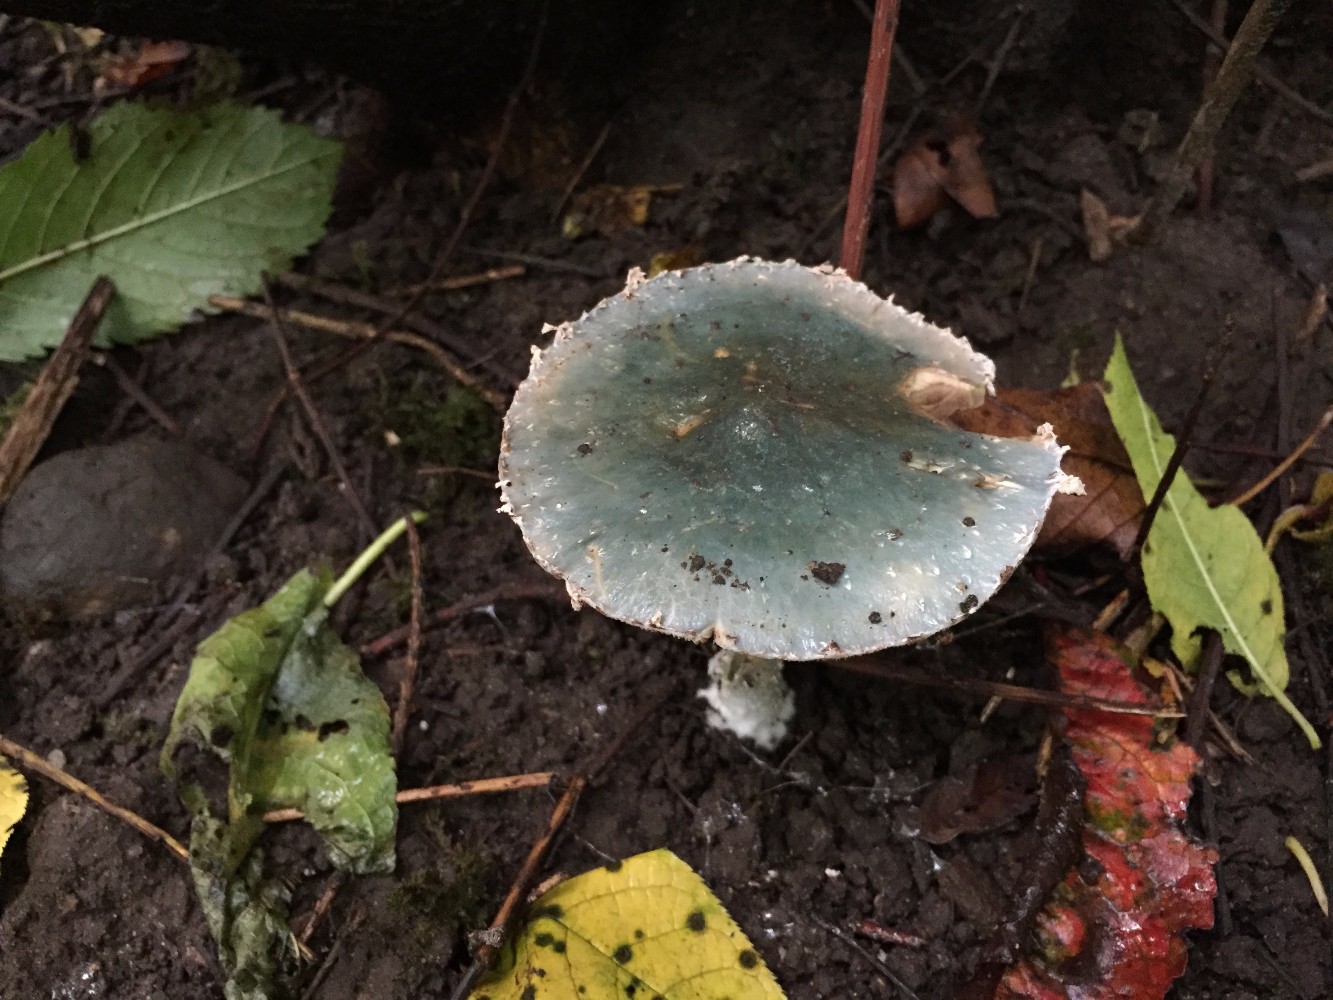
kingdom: Fungi
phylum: Basidiomycota
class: Agaricomycetes
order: Agaricales
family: Strophariaceae
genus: Stropharia
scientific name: Stropharia cyanea
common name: blågrøn bredblad
